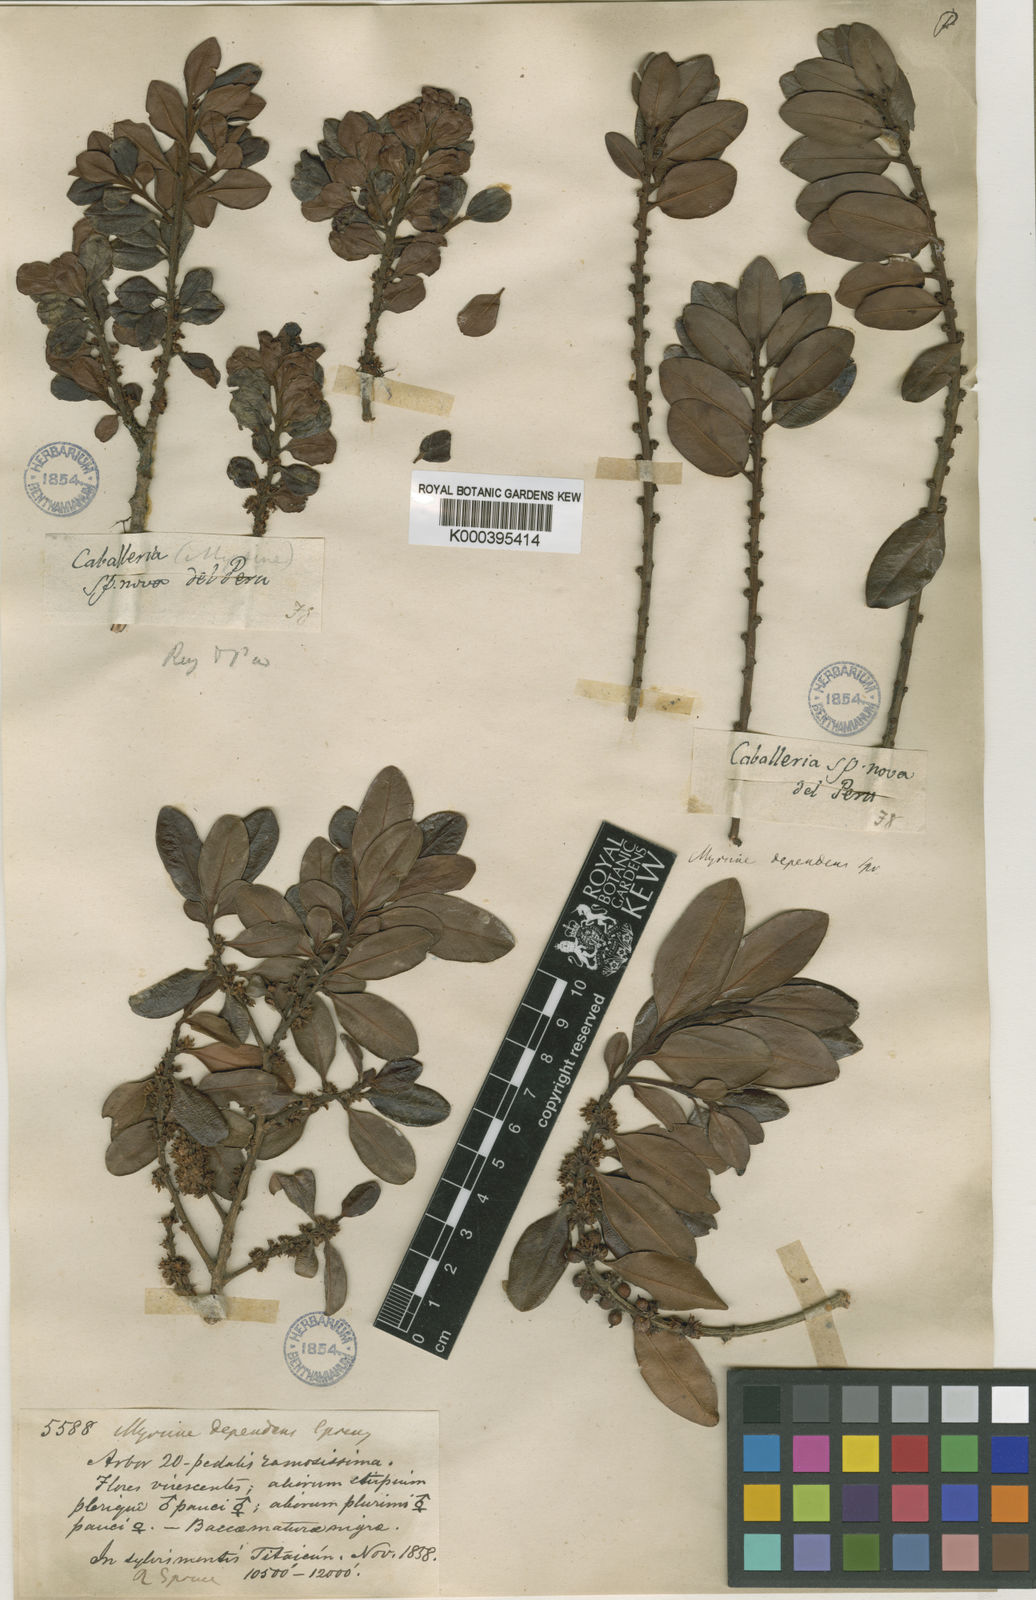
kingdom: Plantae
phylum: Tracheophyta
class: Magnoliopsida
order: Ericales
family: Primulaceae
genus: Myrsine
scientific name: Myrsine dependens
